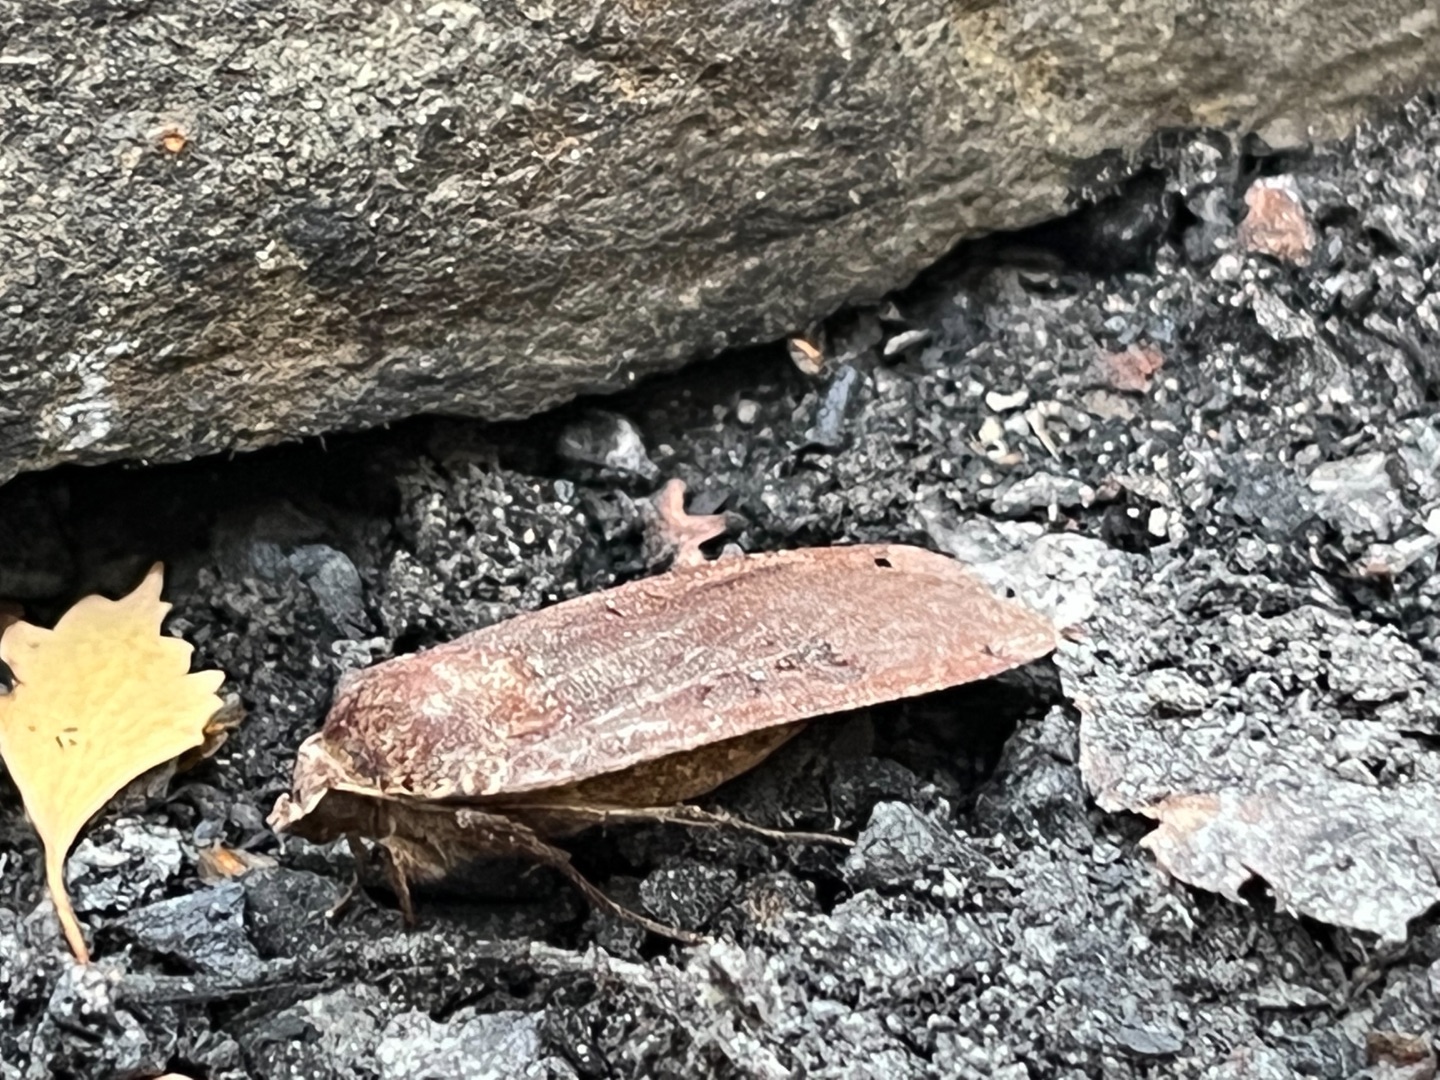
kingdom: Animalia
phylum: Arthropoda
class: Insecta
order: Lepidoptera
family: Noctuidae
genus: Noctua
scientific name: Noctua pronuba
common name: Stor smutugle
